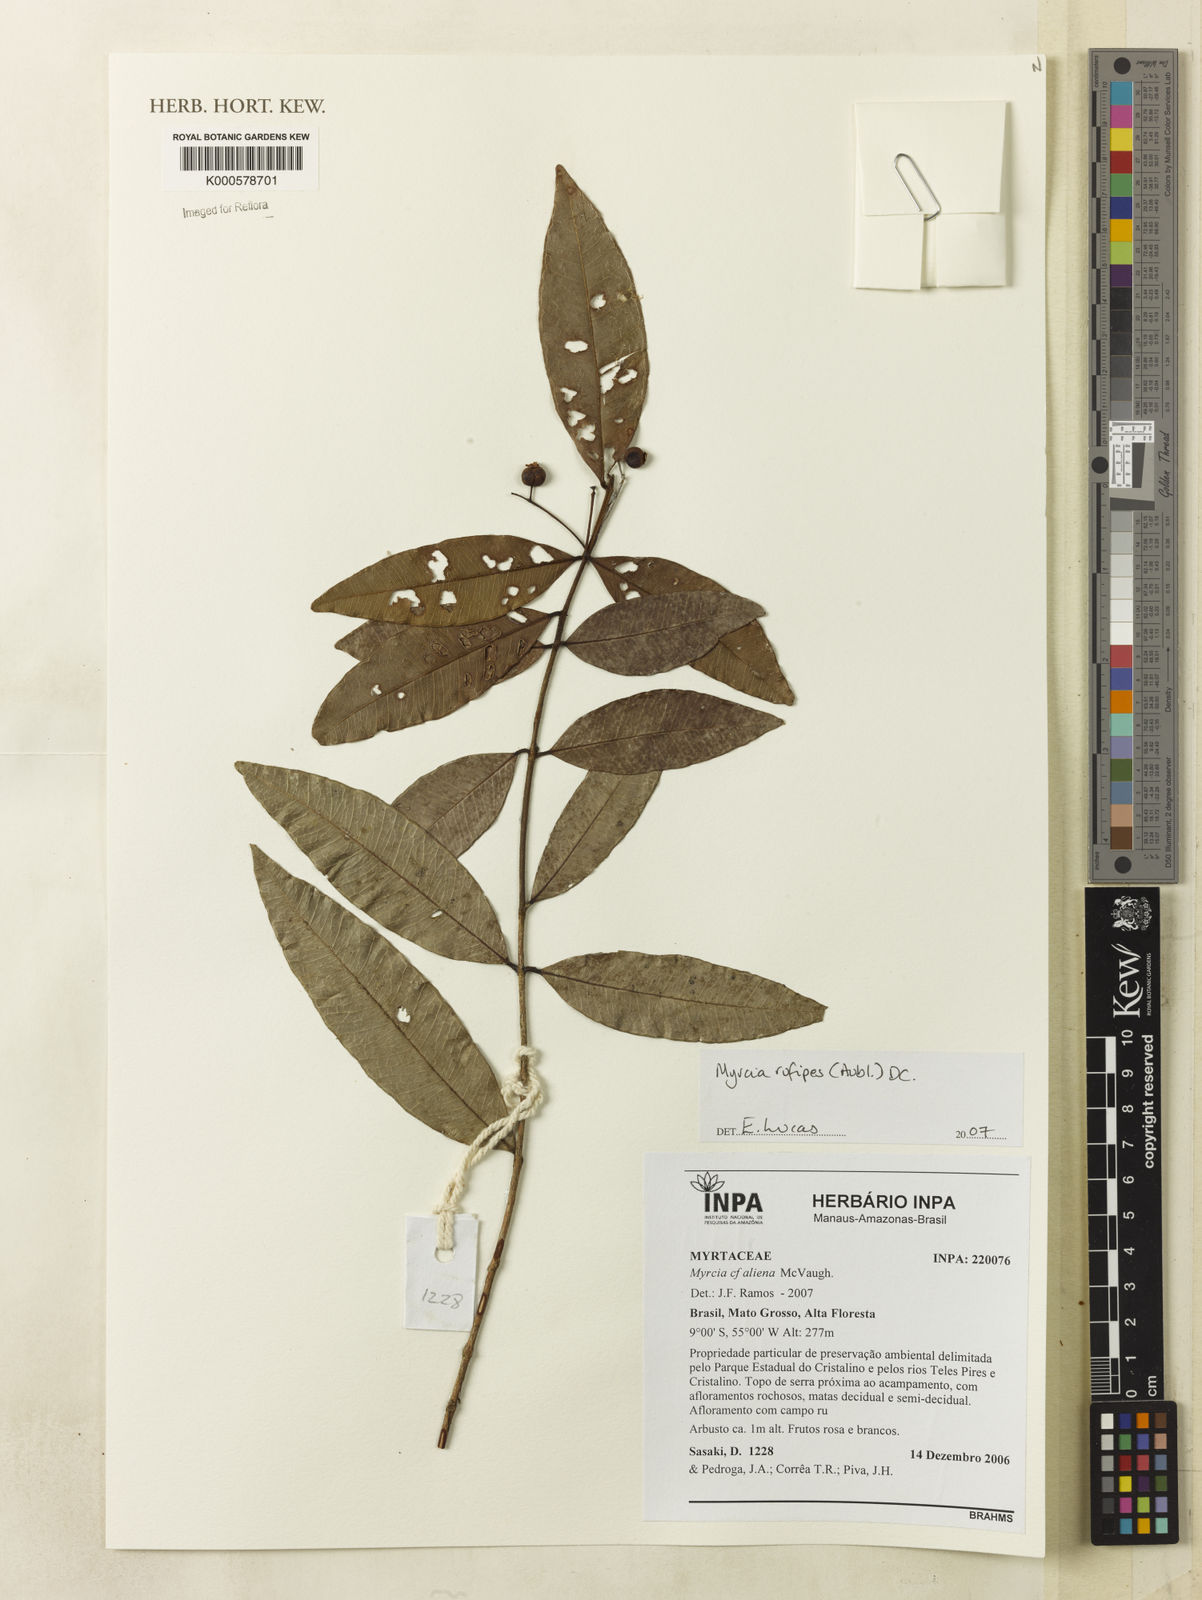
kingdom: Plantae
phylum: Tracheophyta
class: Magnoliopsida
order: Myrtales
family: Myrtaceae
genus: Myrcia
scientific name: Myrcia rufipes
